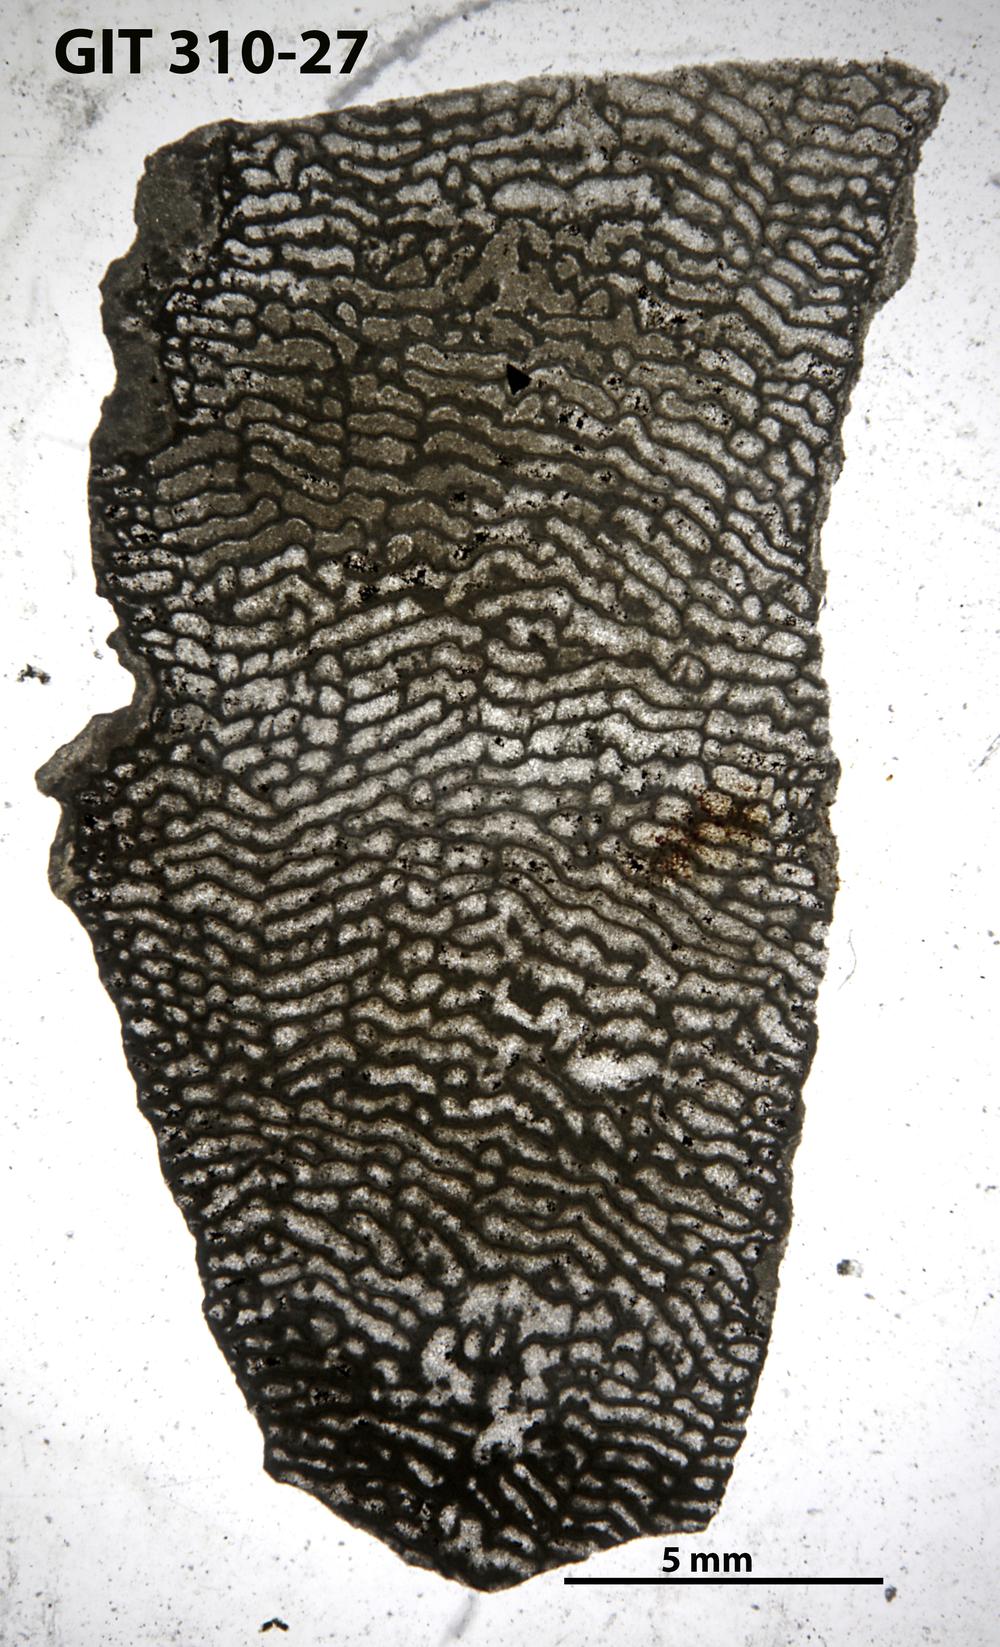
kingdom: Animalia
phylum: Porifera
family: Actinodictyidae
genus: Camptodictyon
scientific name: Camptodictyon
